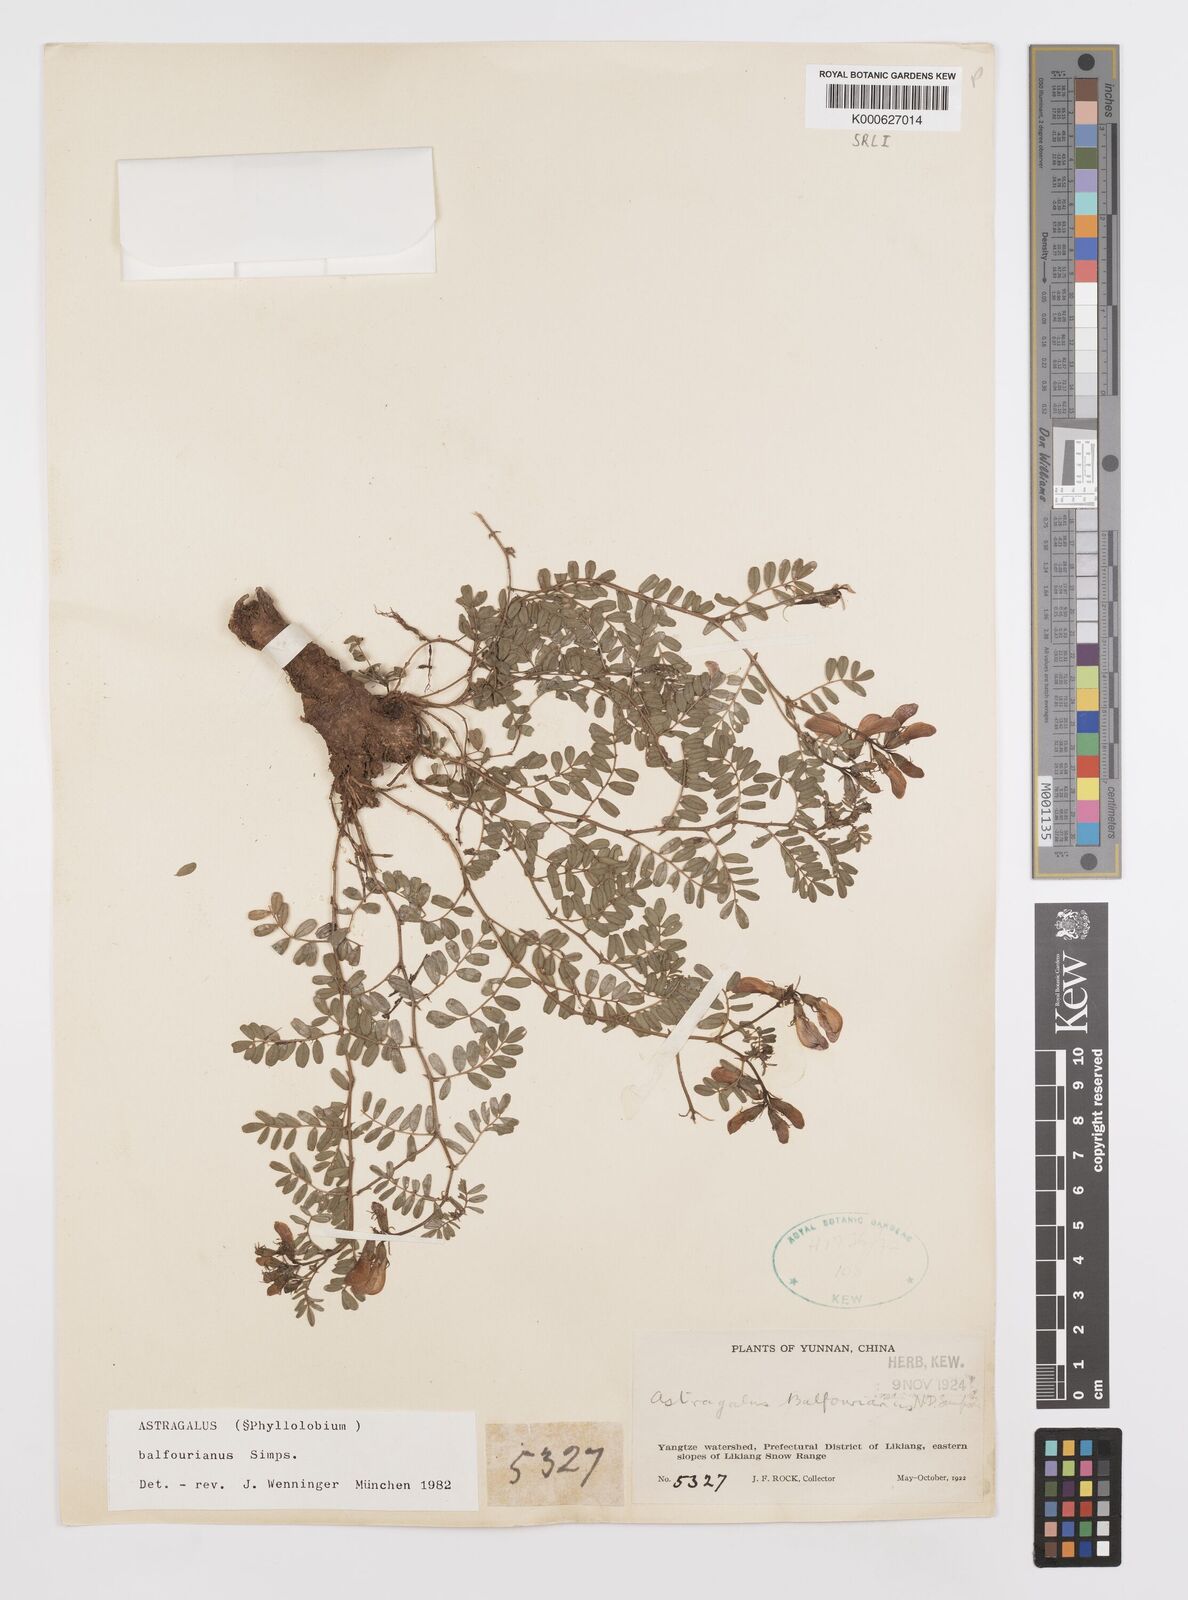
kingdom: Plantae
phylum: Tracheophyta
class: Magnoliopsida
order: Fabales
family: Fabaceae
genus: Phyllolobium
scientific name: Phyllolobium balfourianum
